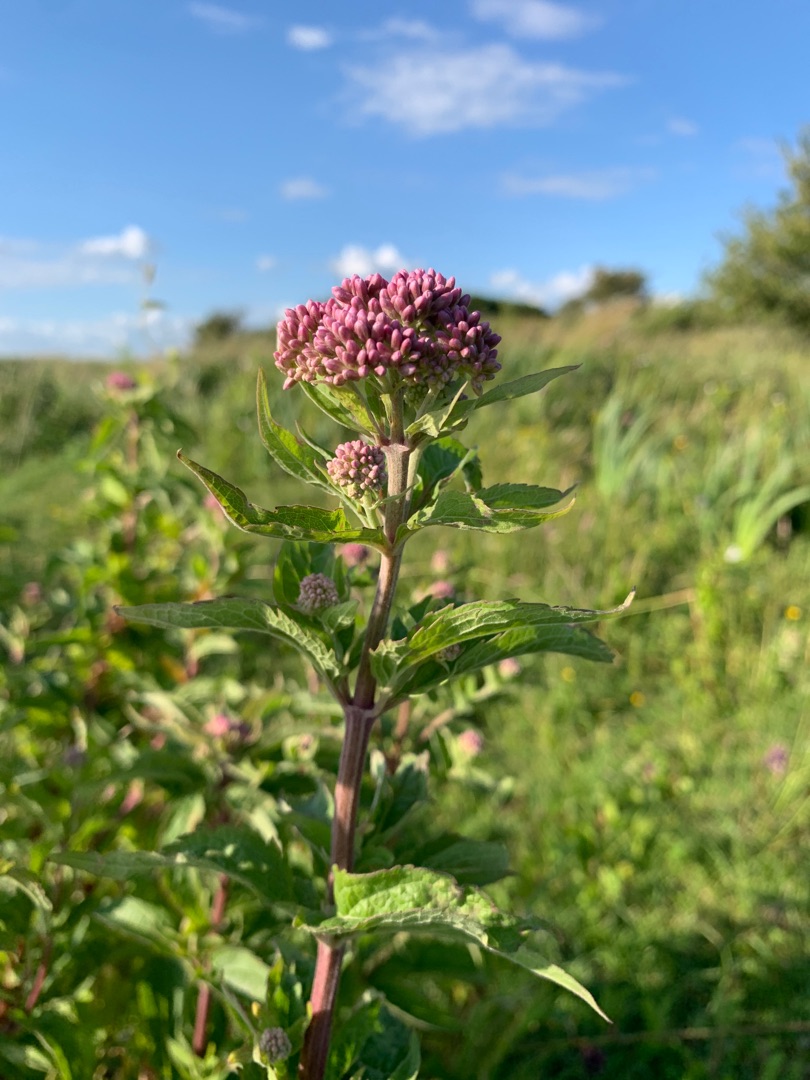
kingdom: Plantae
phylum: Tracheophyta
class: Magnoliopsida
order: Asterales
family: Asteraceae
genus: Eupatorium
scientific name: Eupatorium cannabinum
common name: Hjortetrøst
